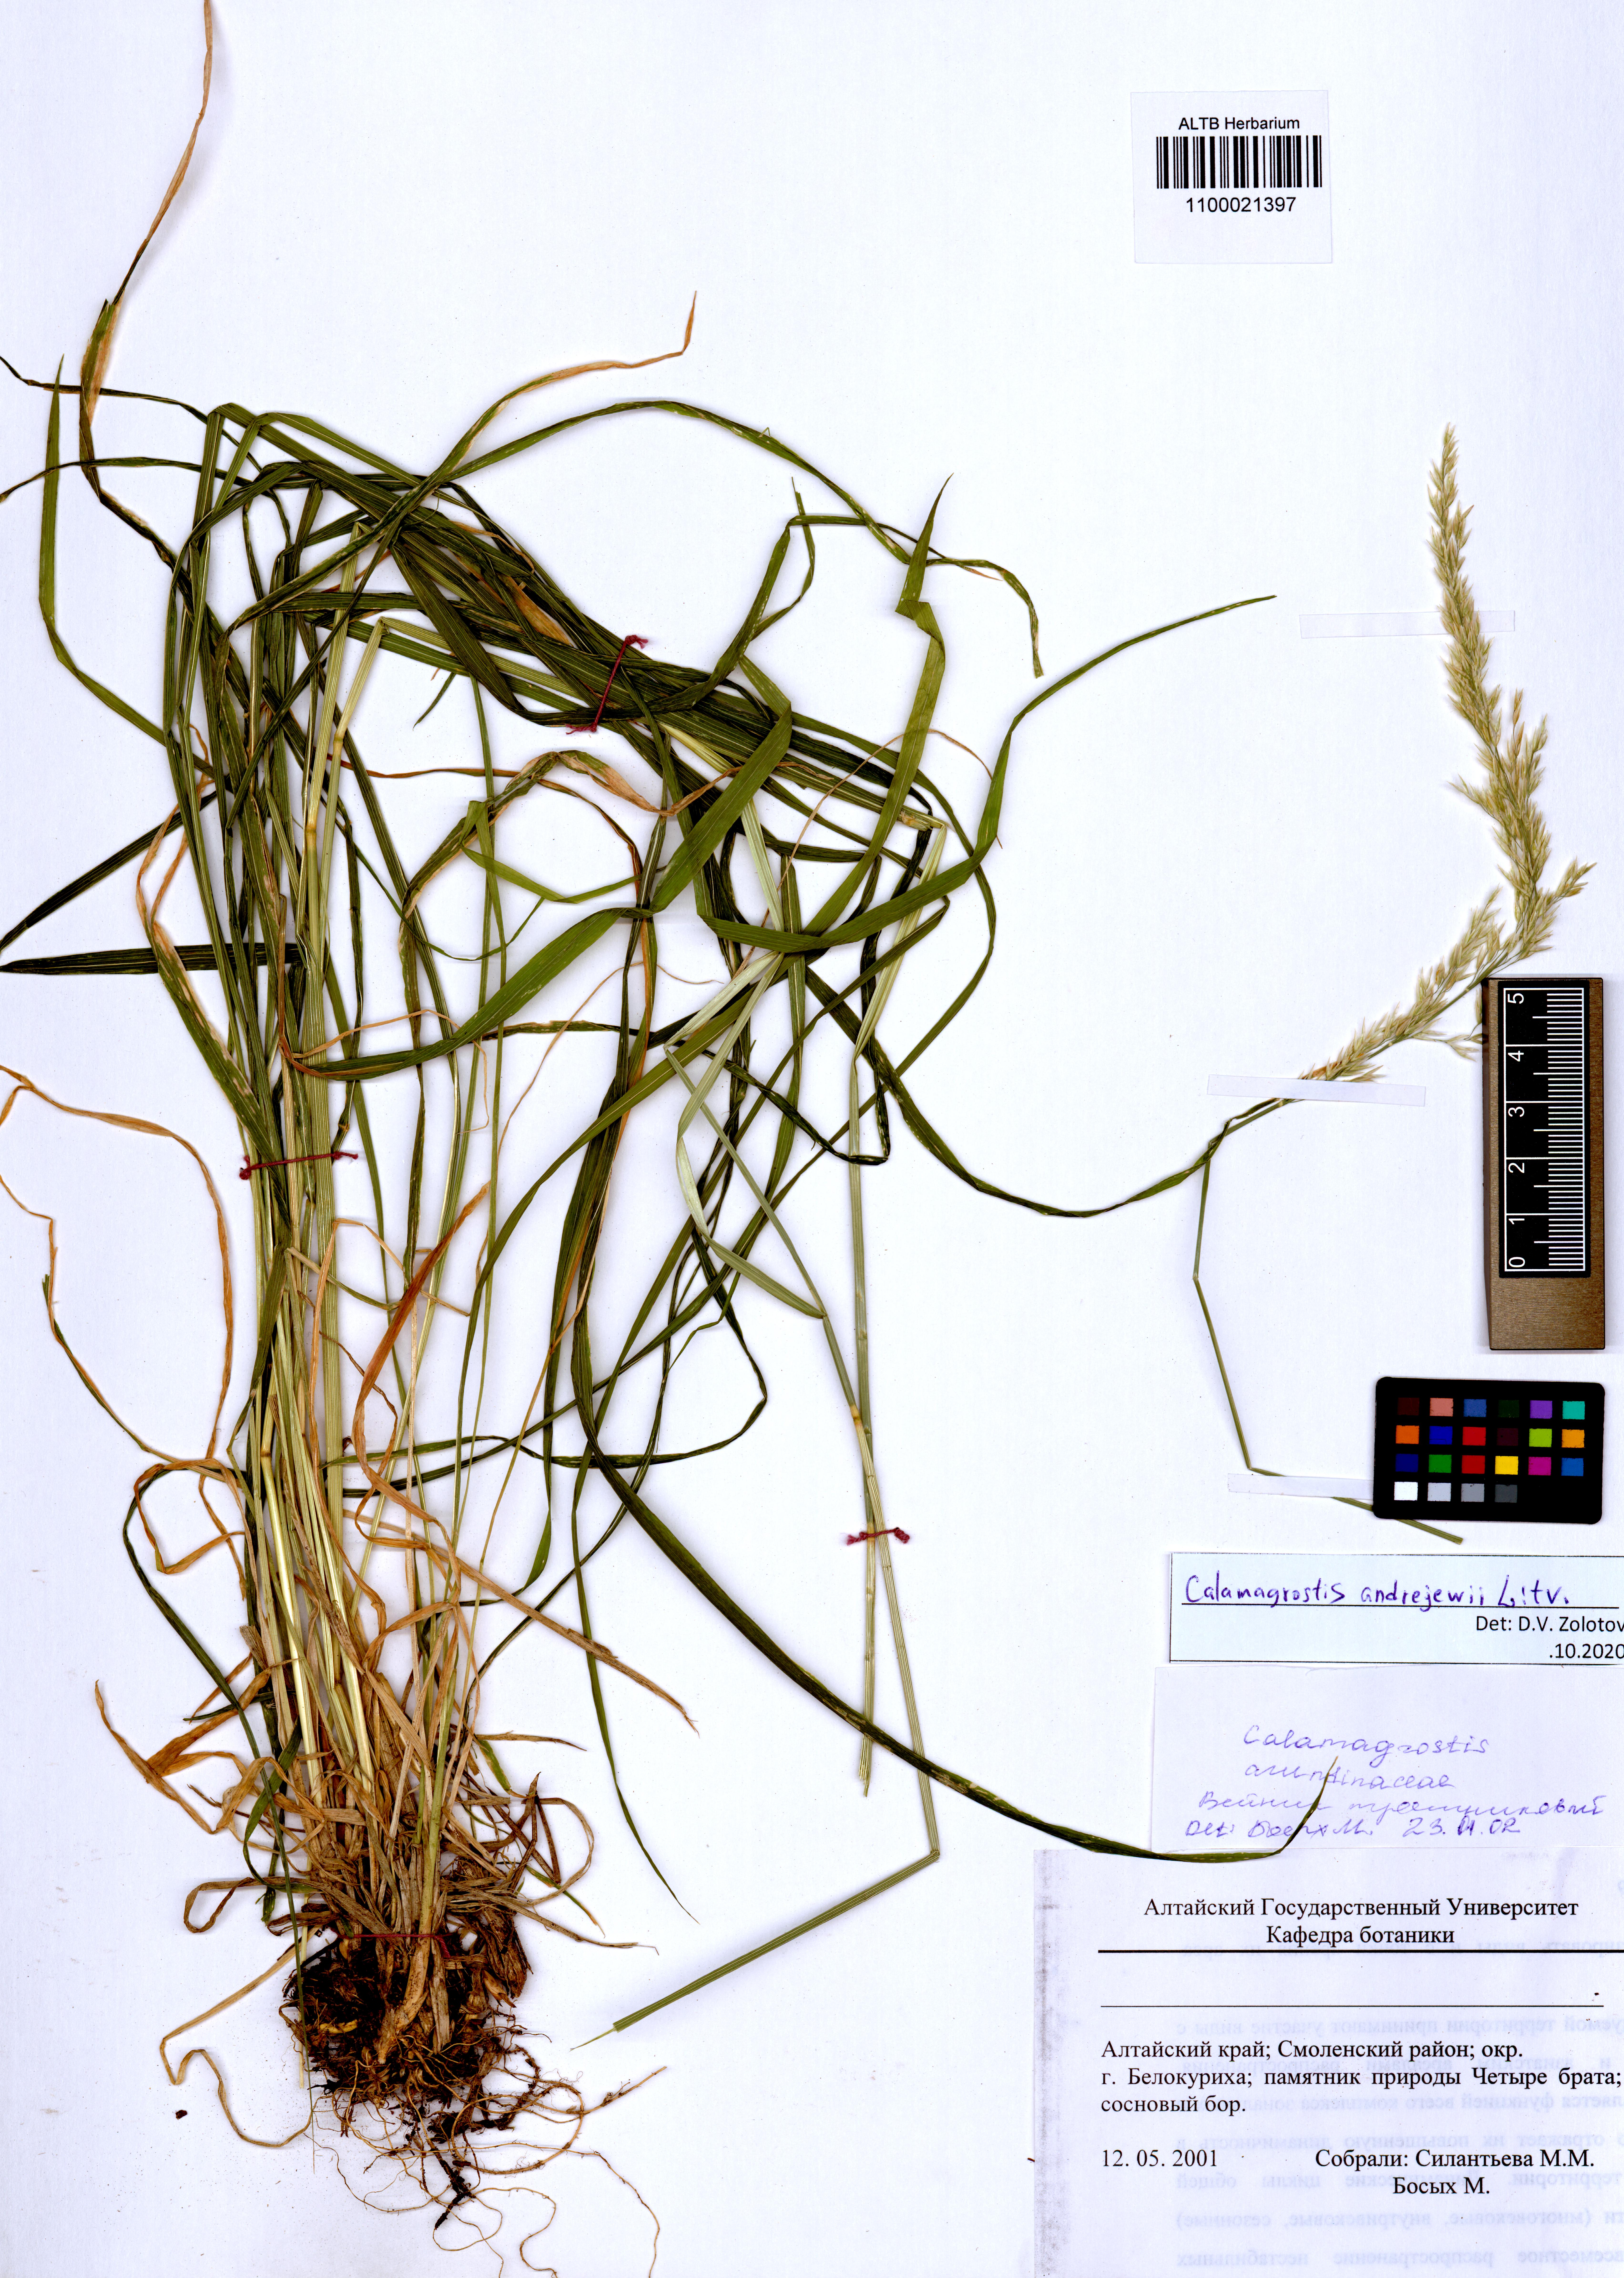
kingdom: Plantae
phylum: Tracheophyta
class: Liliopsida
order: Poales
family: Poaceae
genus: Calamagrostis
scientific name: Calamagrostis andrejewii
